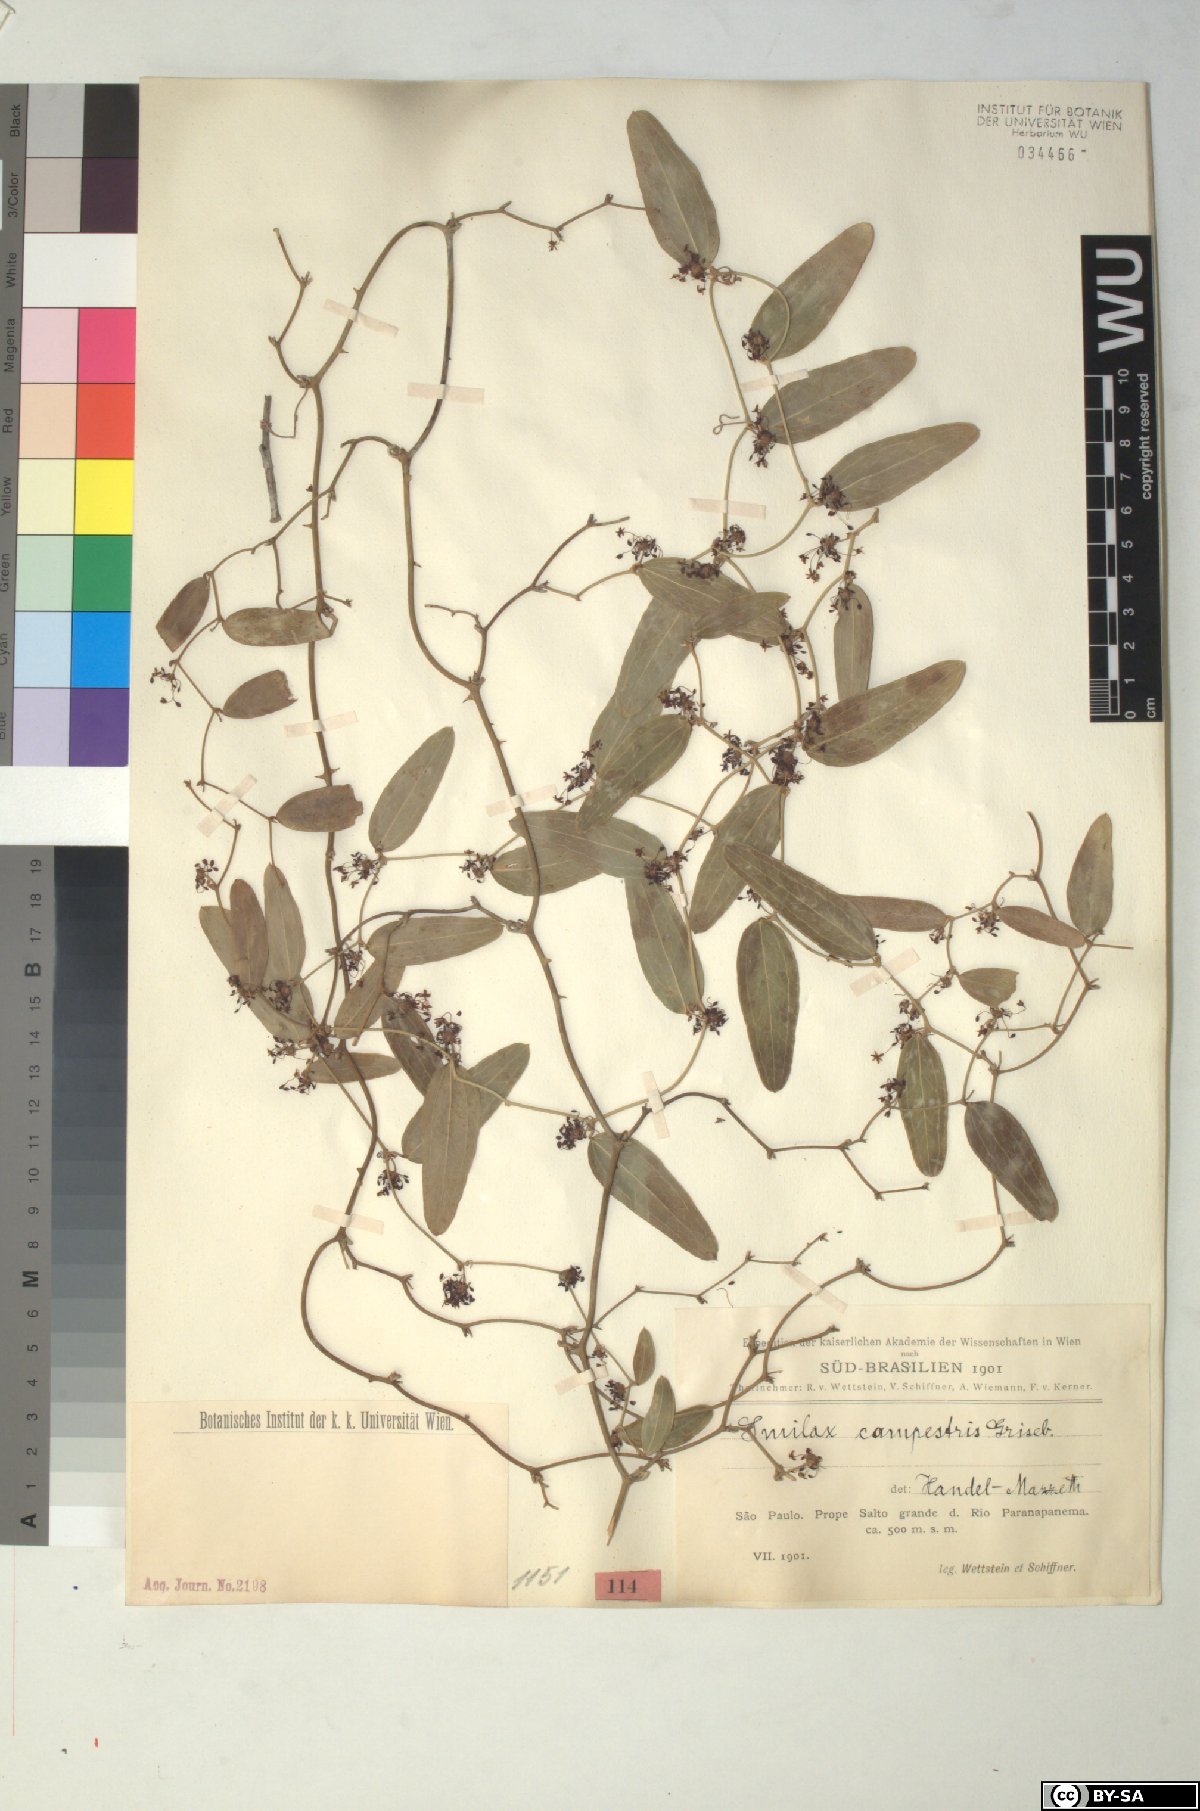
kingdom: Plantae
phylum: Tracheophyta
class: Liliopsida
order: Liliales
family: Smilacaceae
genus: Smilax
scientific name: Smilax campestris
